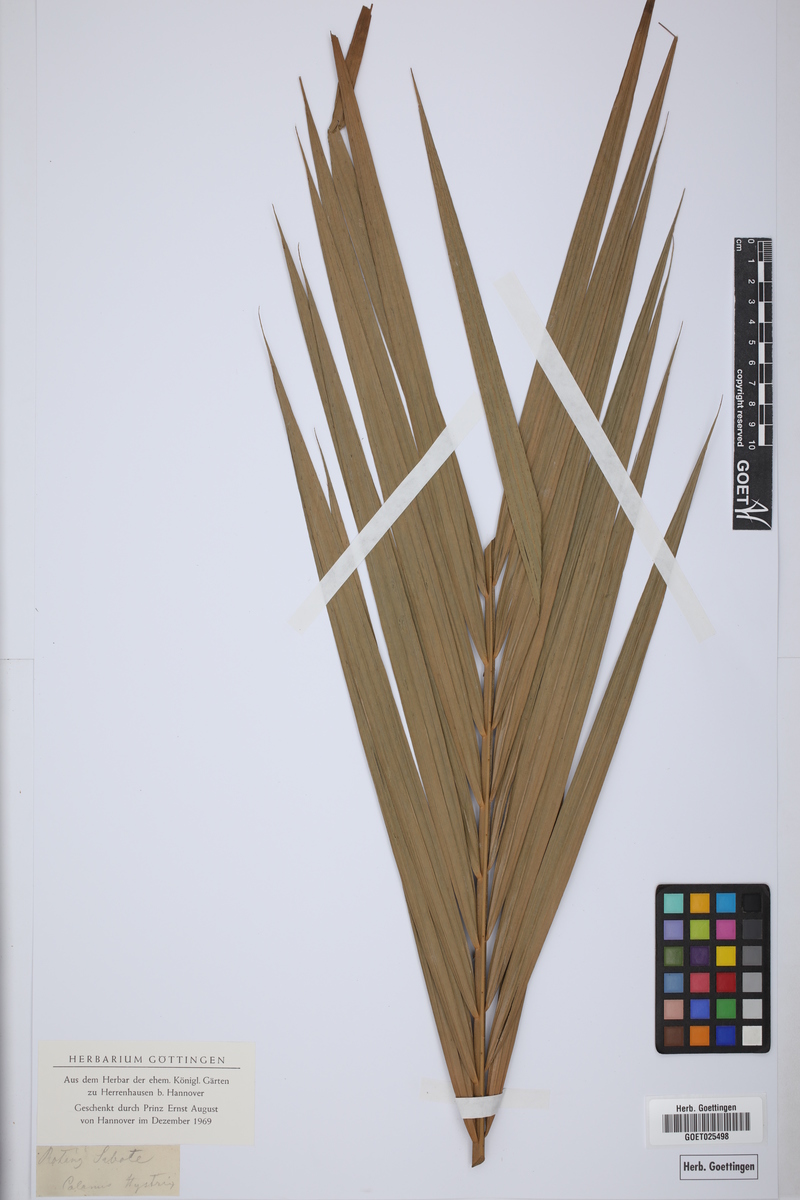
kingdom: Plantae
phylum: Tracheophyta
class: Liliopsida
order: Arecales
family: Arecaceae
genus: Calamus
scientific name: Calamus hirsutus
